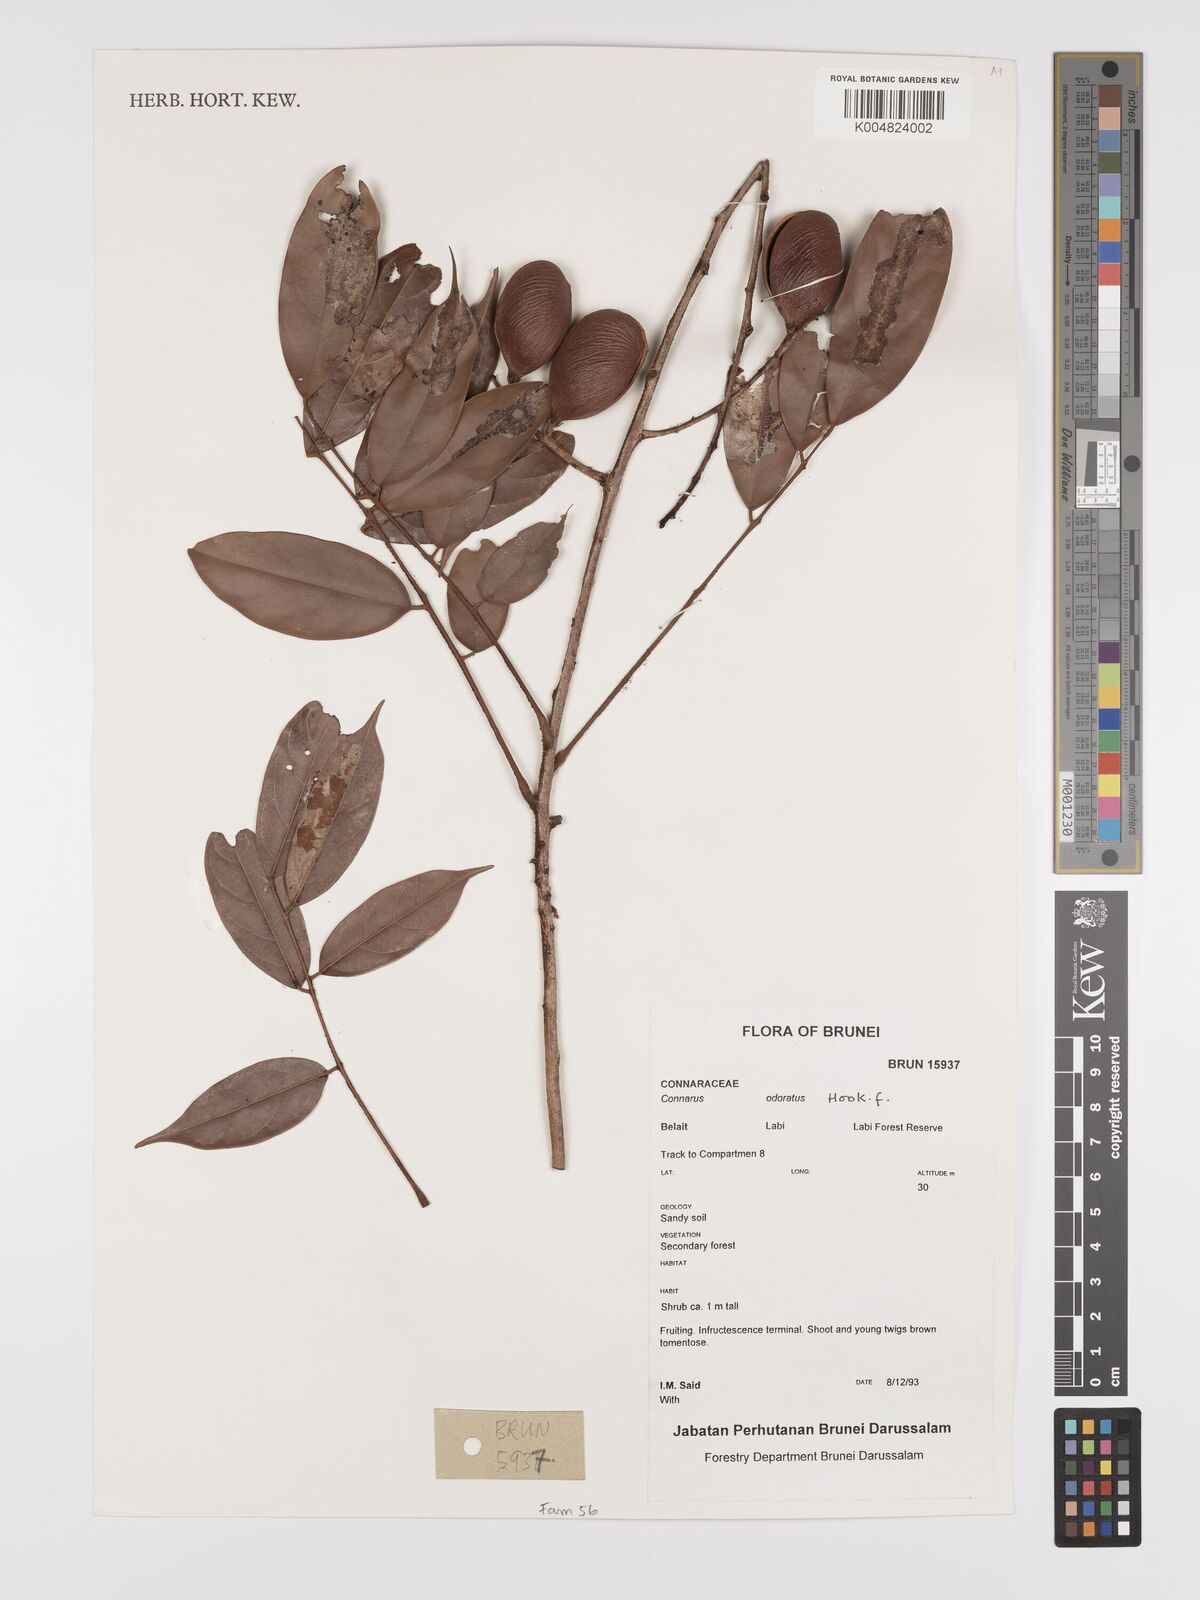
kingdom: Plantae
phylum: Tracheophyta
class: Magnoliopsida
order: Oxalidales
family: Connaraceae
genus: Connarus
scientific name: Connarus odoratus
